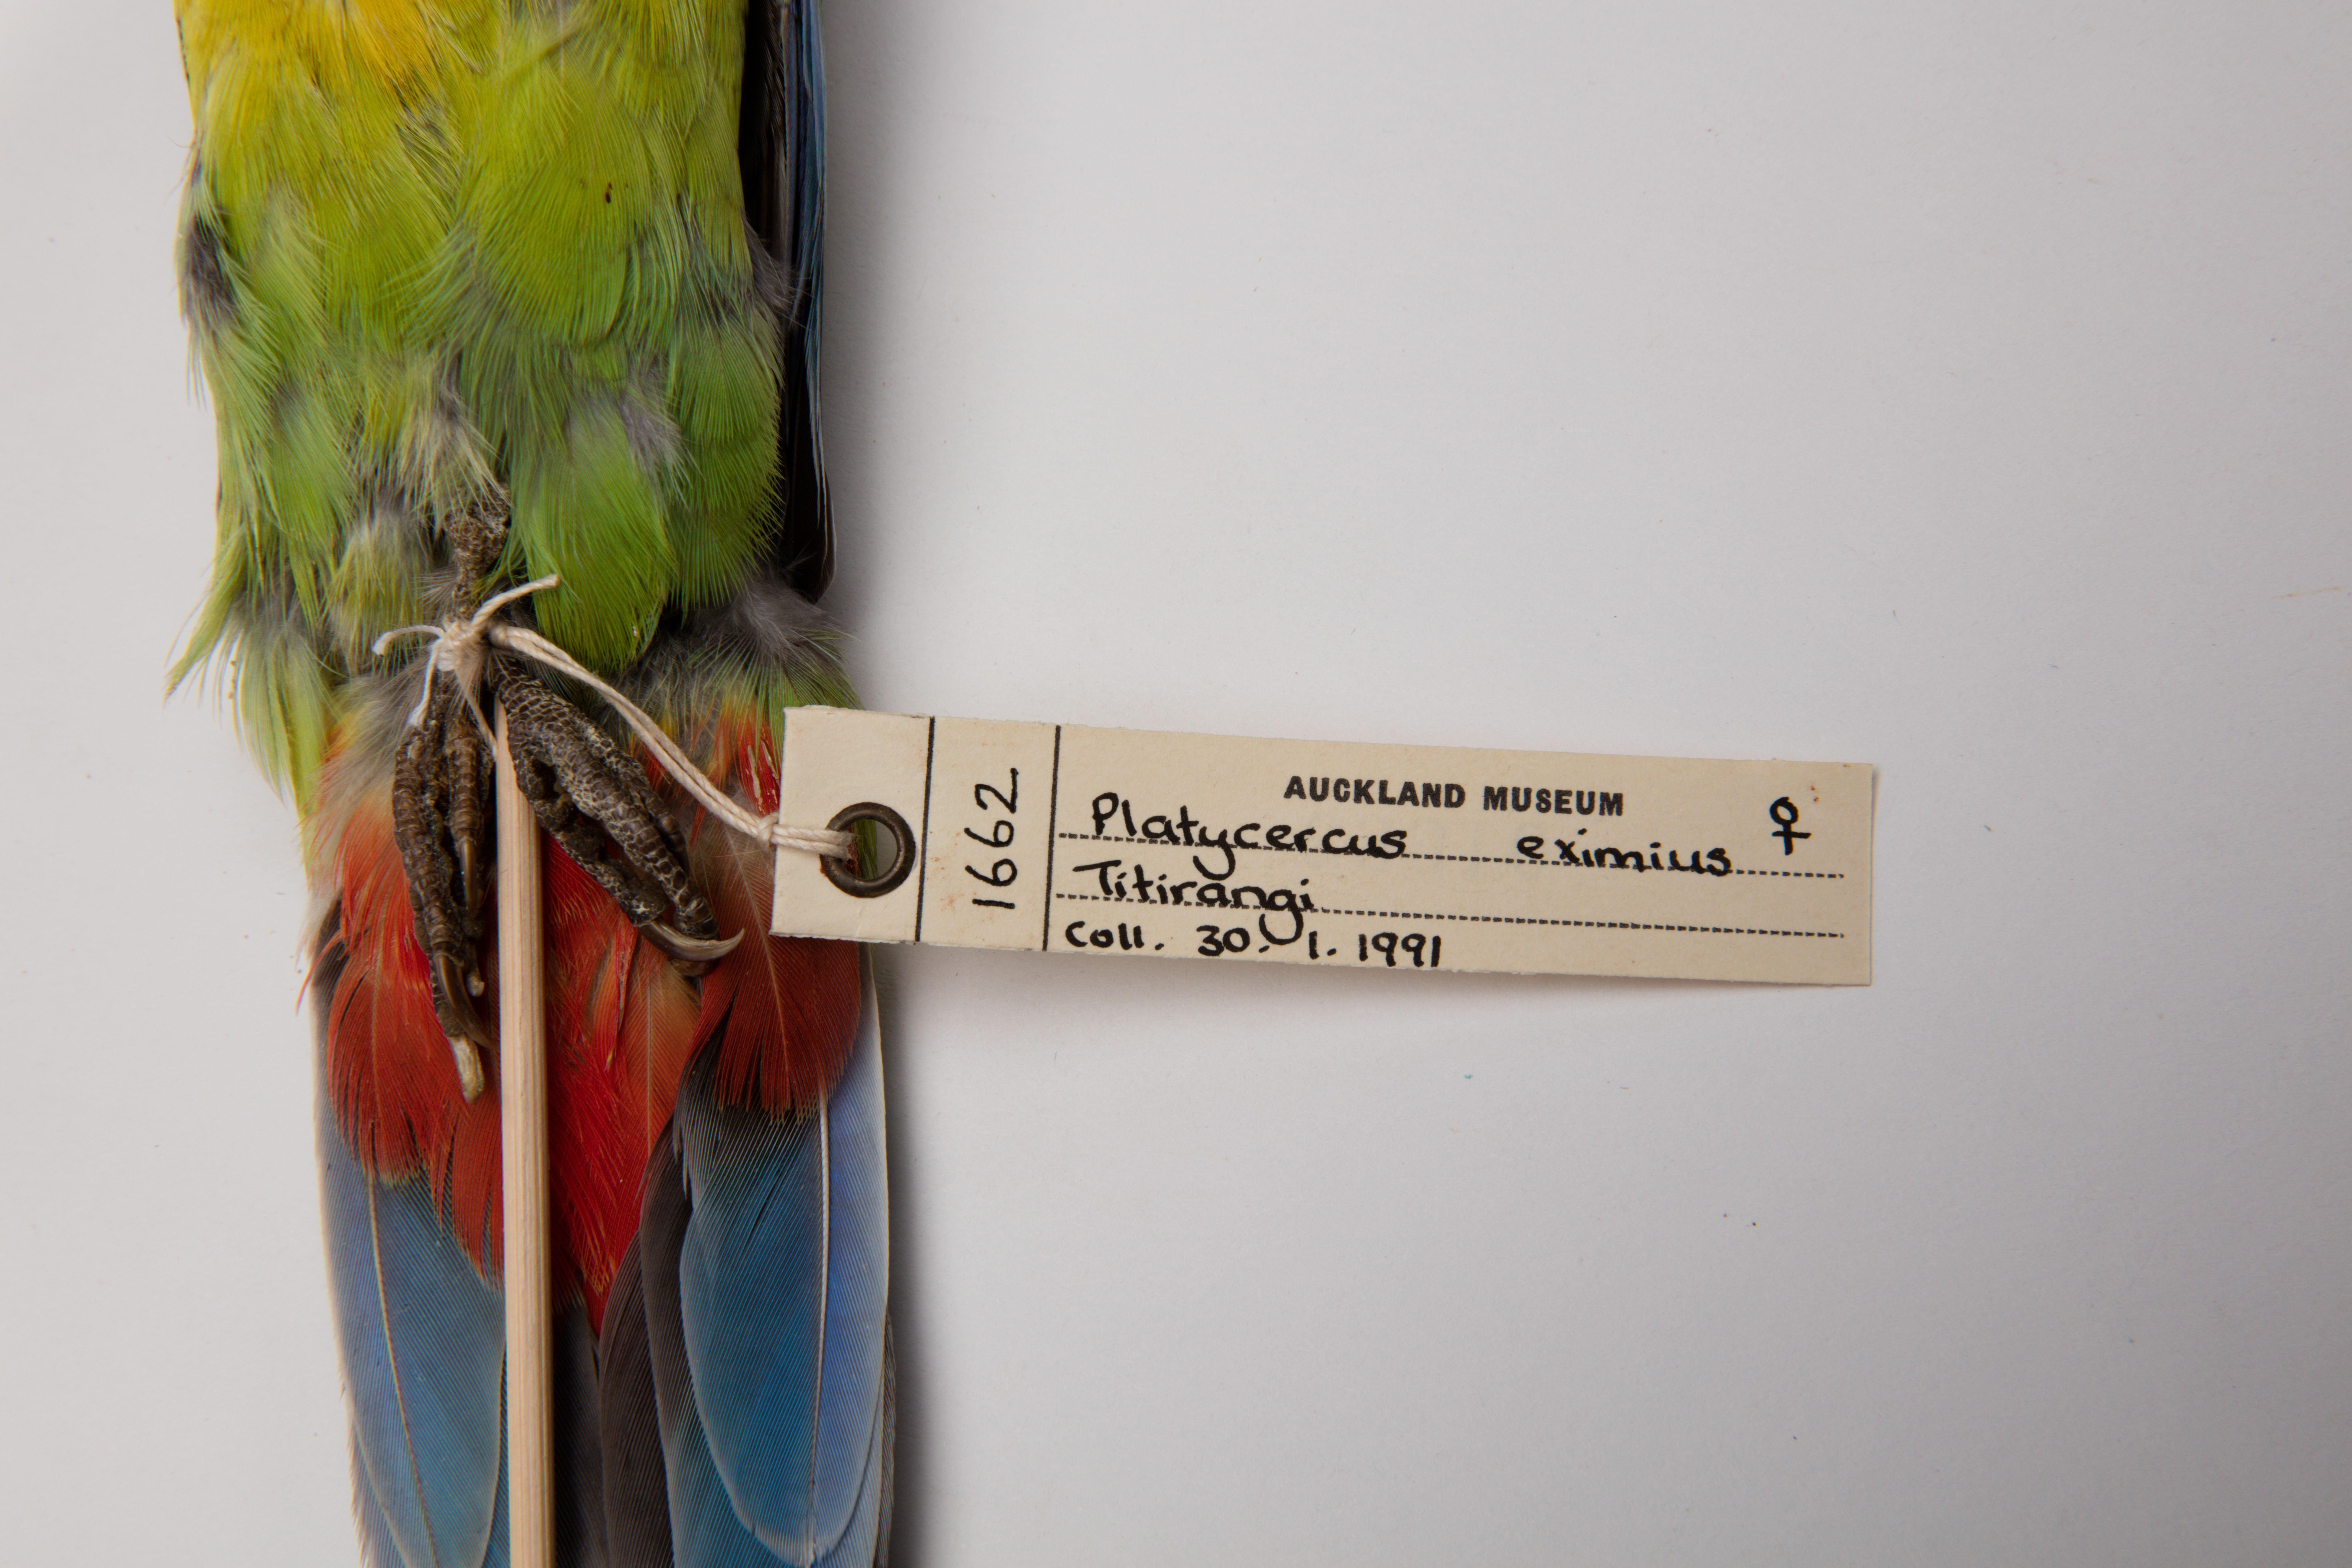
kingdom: Animalia
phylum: Chordata
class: Aves
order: Psittaciformes
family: Psittacidae
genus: Platycercus
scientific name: Platycercus eximius
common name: Eastern rosella
